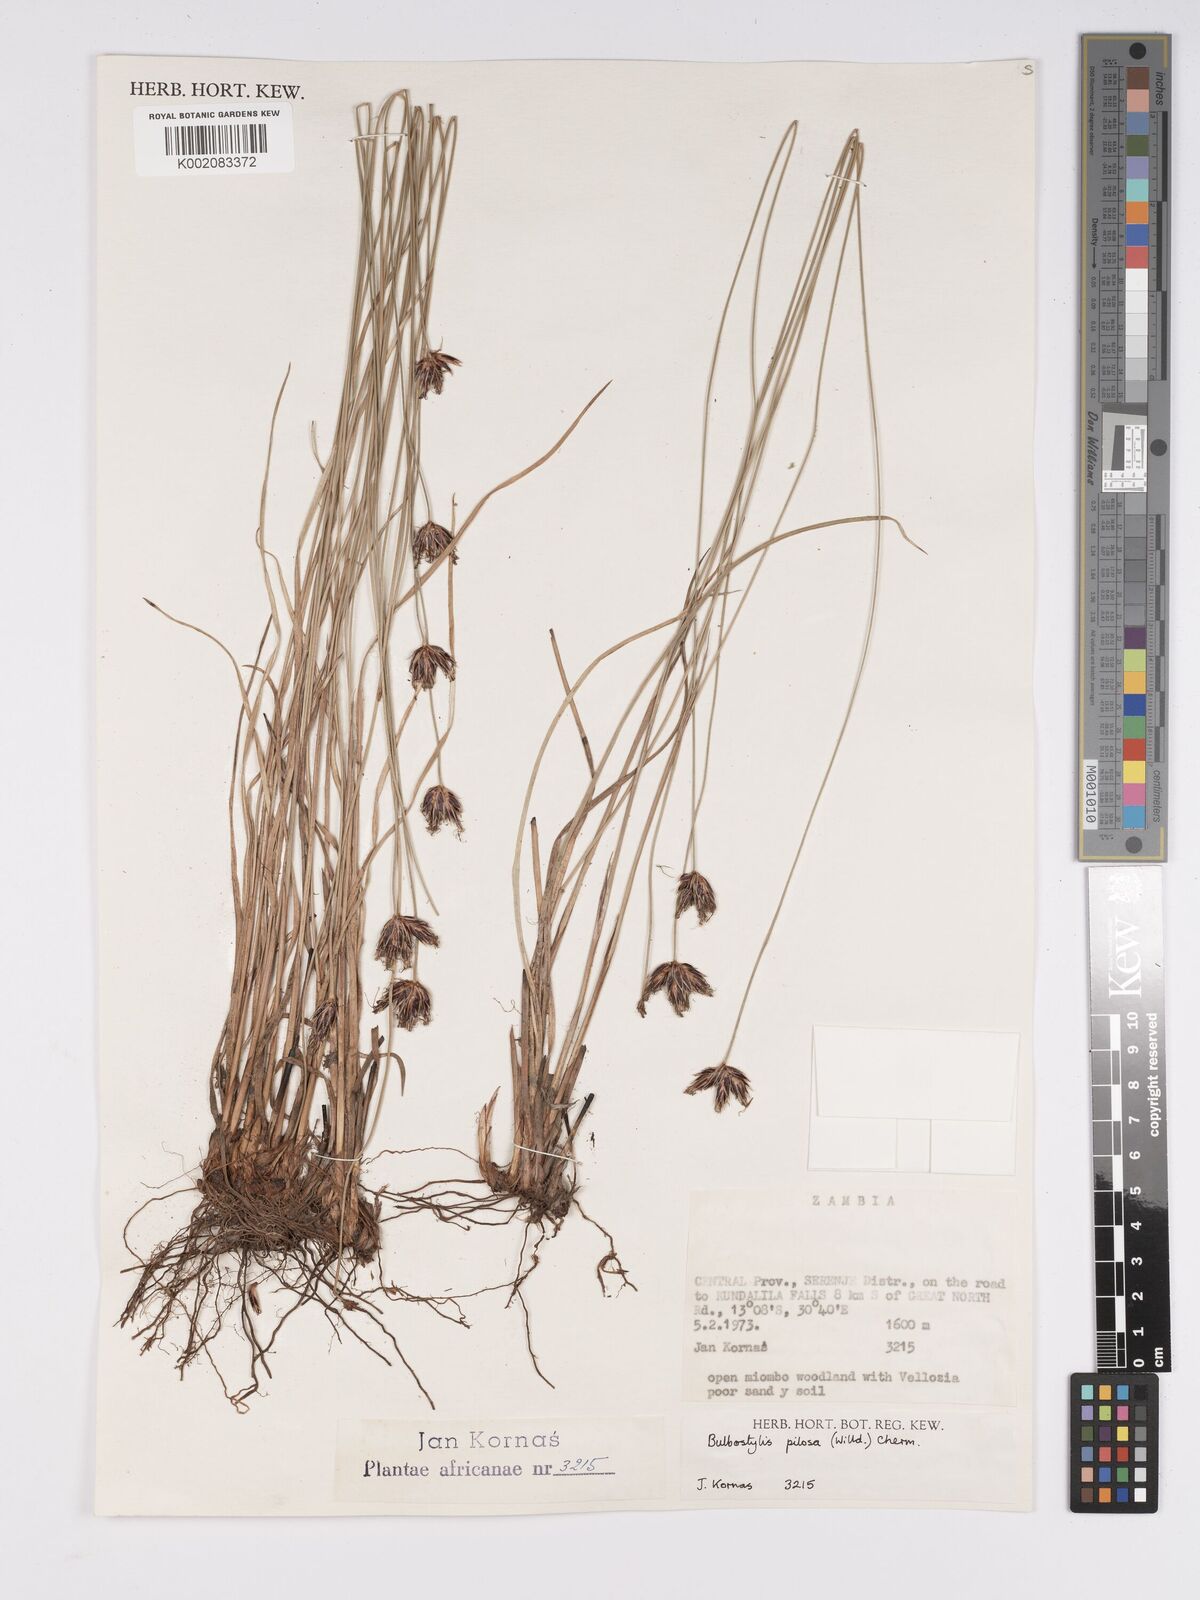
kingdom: Plantae
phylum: Tracheophyta
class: Liliopsida
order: Poales
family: Cyperaceae
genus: Bulbostylis
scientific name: Bulbostylis pilosa
